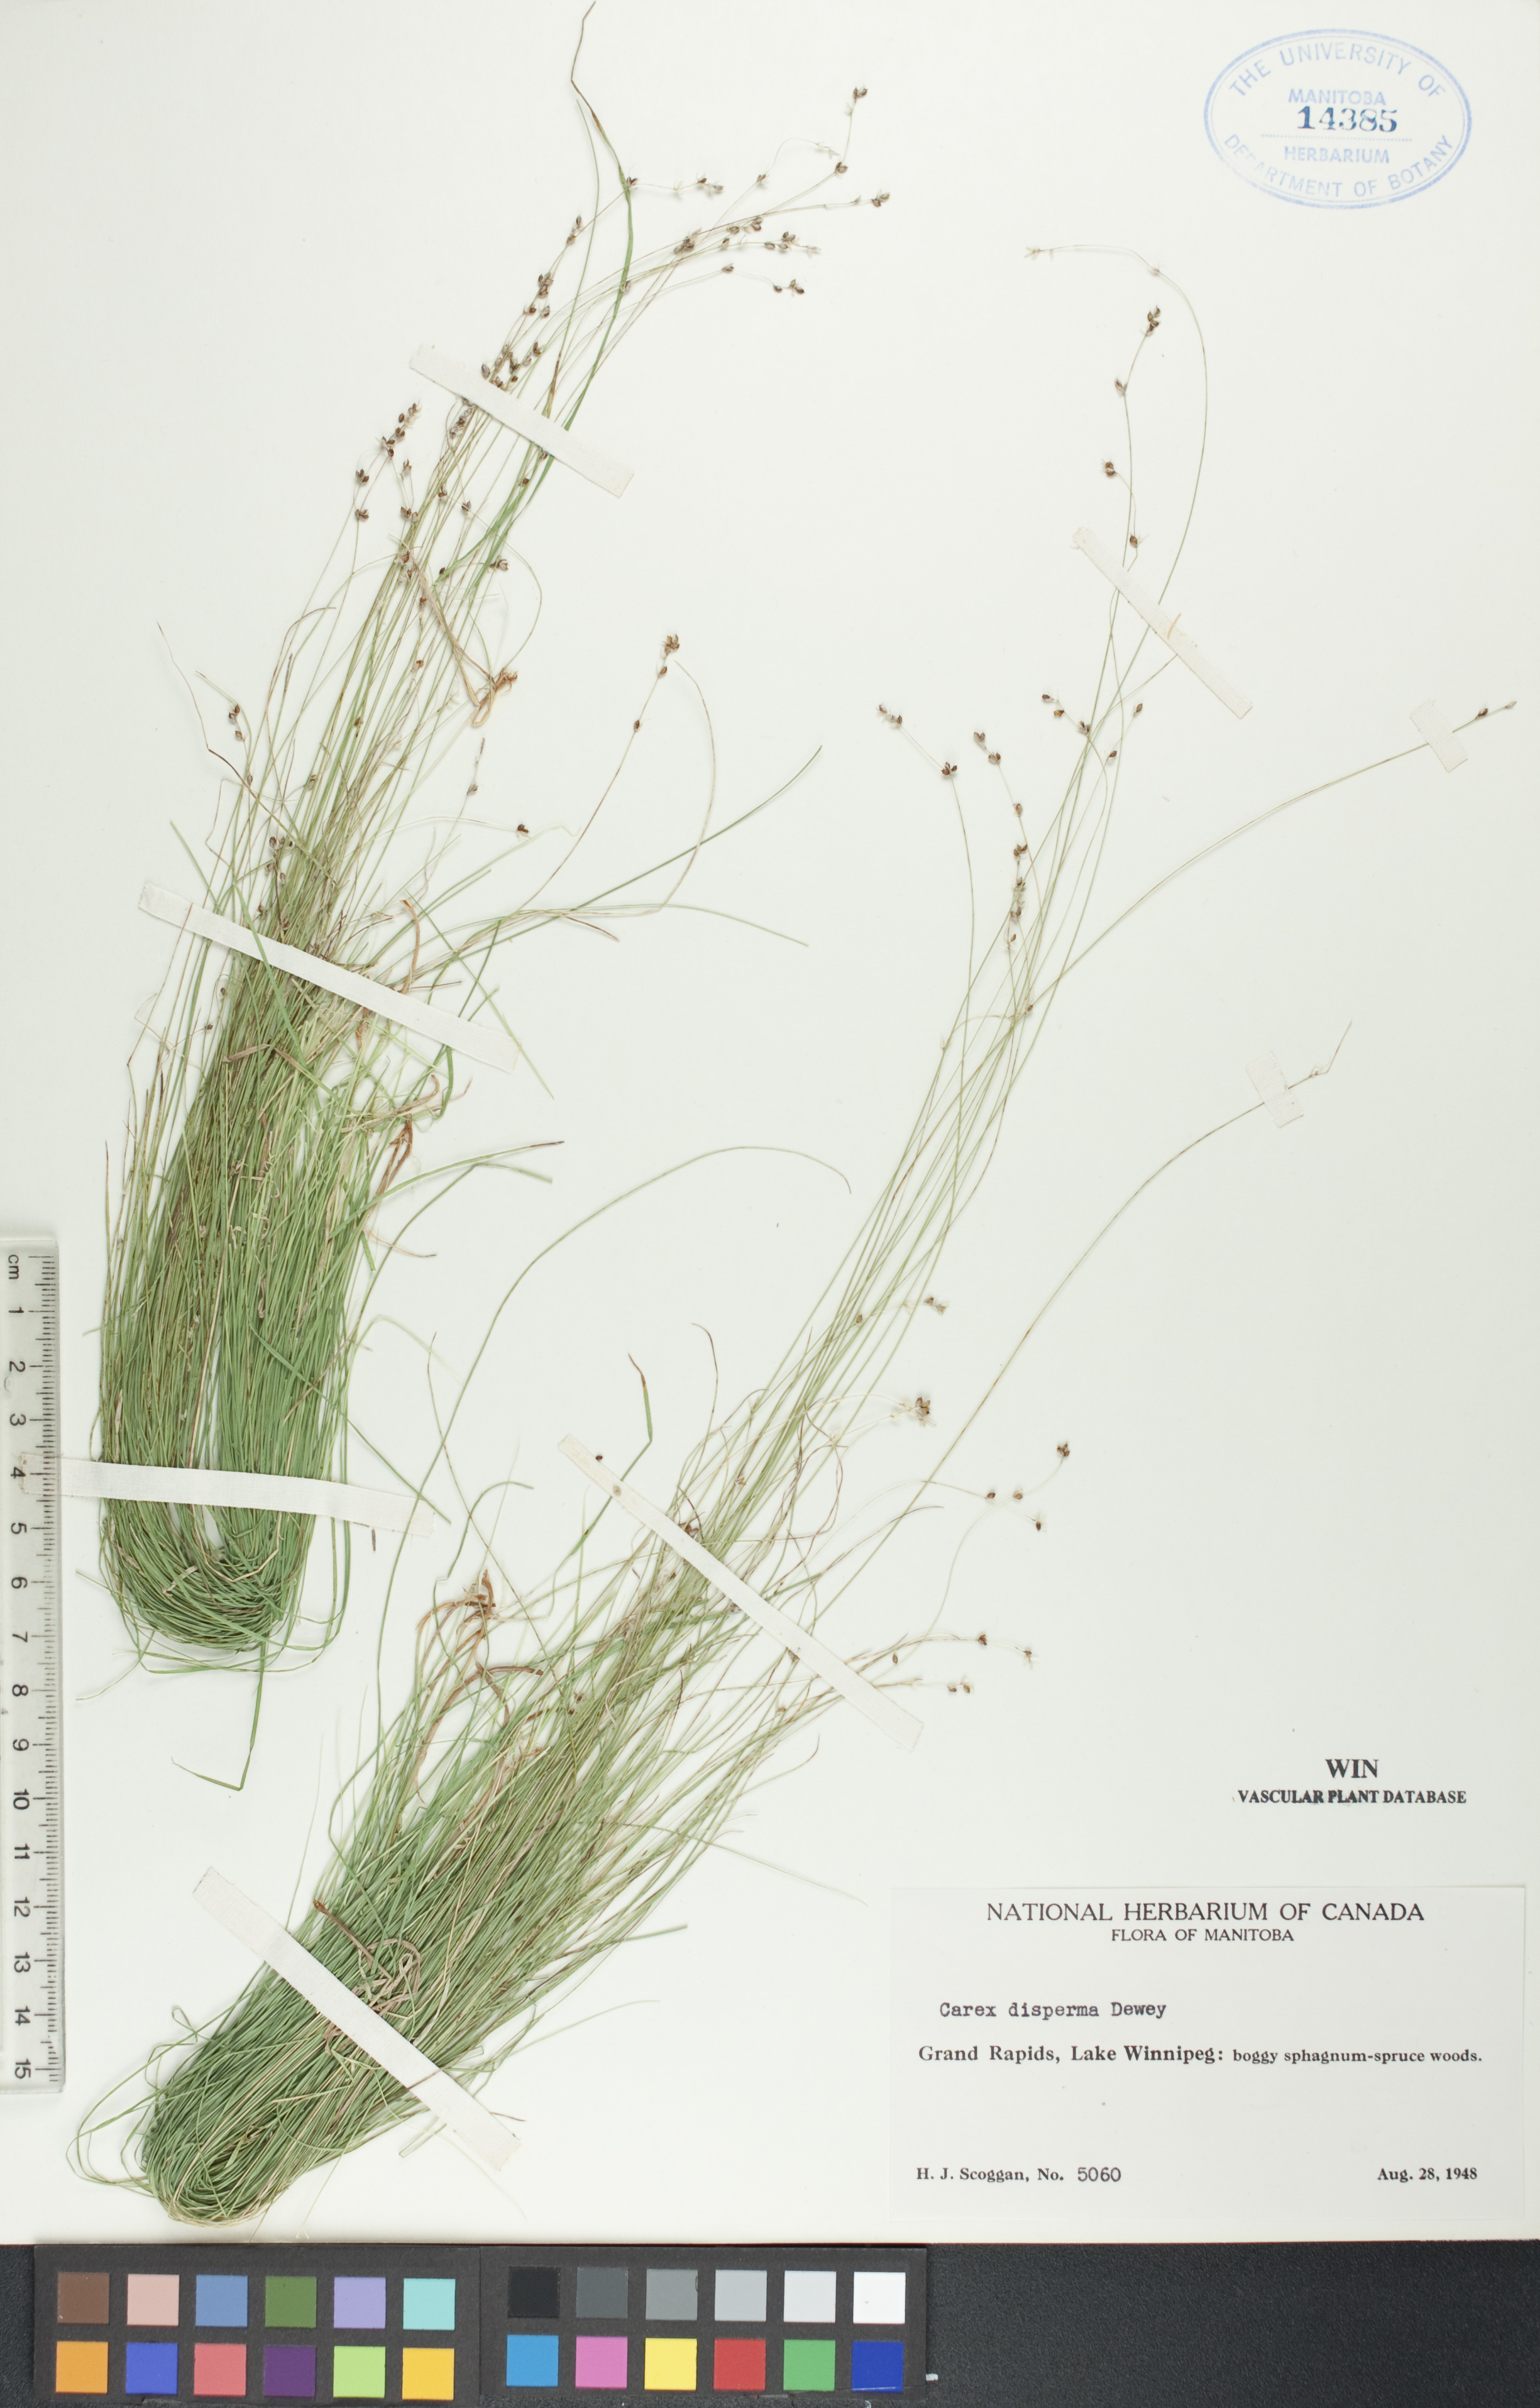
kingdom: Plantae
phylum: Tracheophyta
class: Liliopsida
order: Poales
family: Cyperaceae
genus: Carex
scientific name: Carex disperma
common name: Short-leaved sedge
